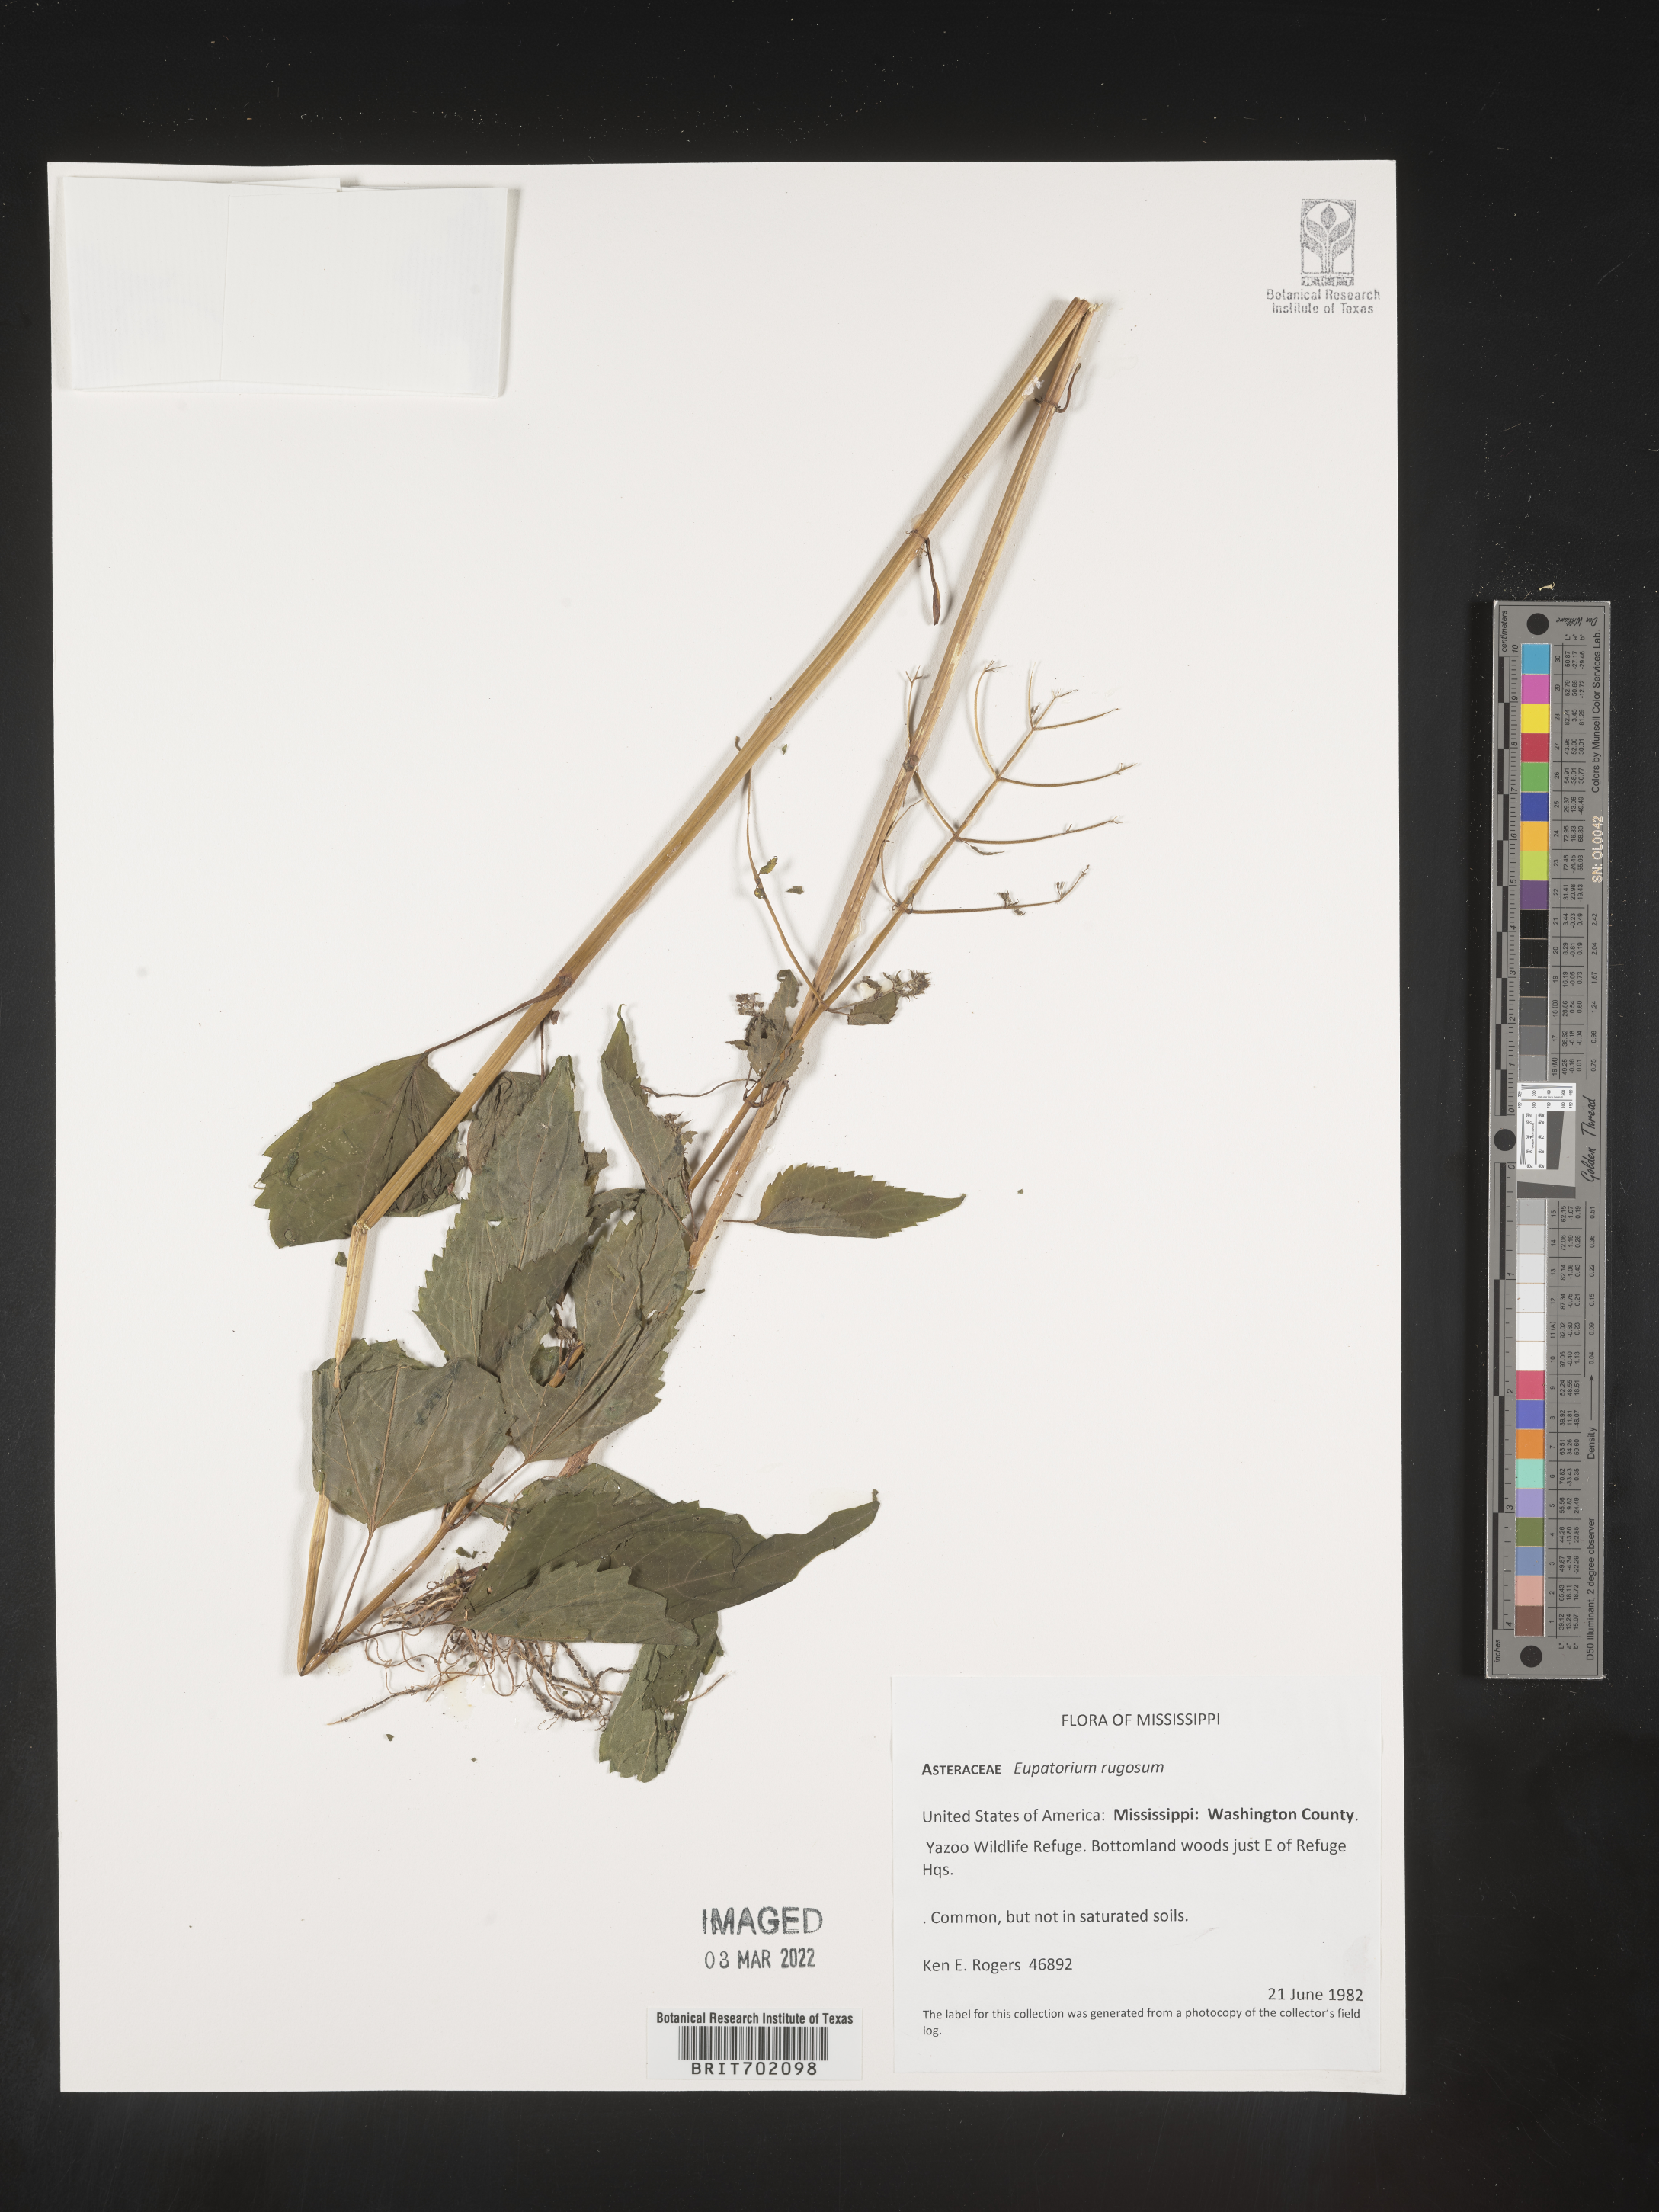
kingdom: Plantae
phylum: Tracheophyta
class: Magnoliopsida
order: Asterales
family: Asteraceae
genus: Cronquistianthus
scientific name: Cronquistianthus bulliferus
